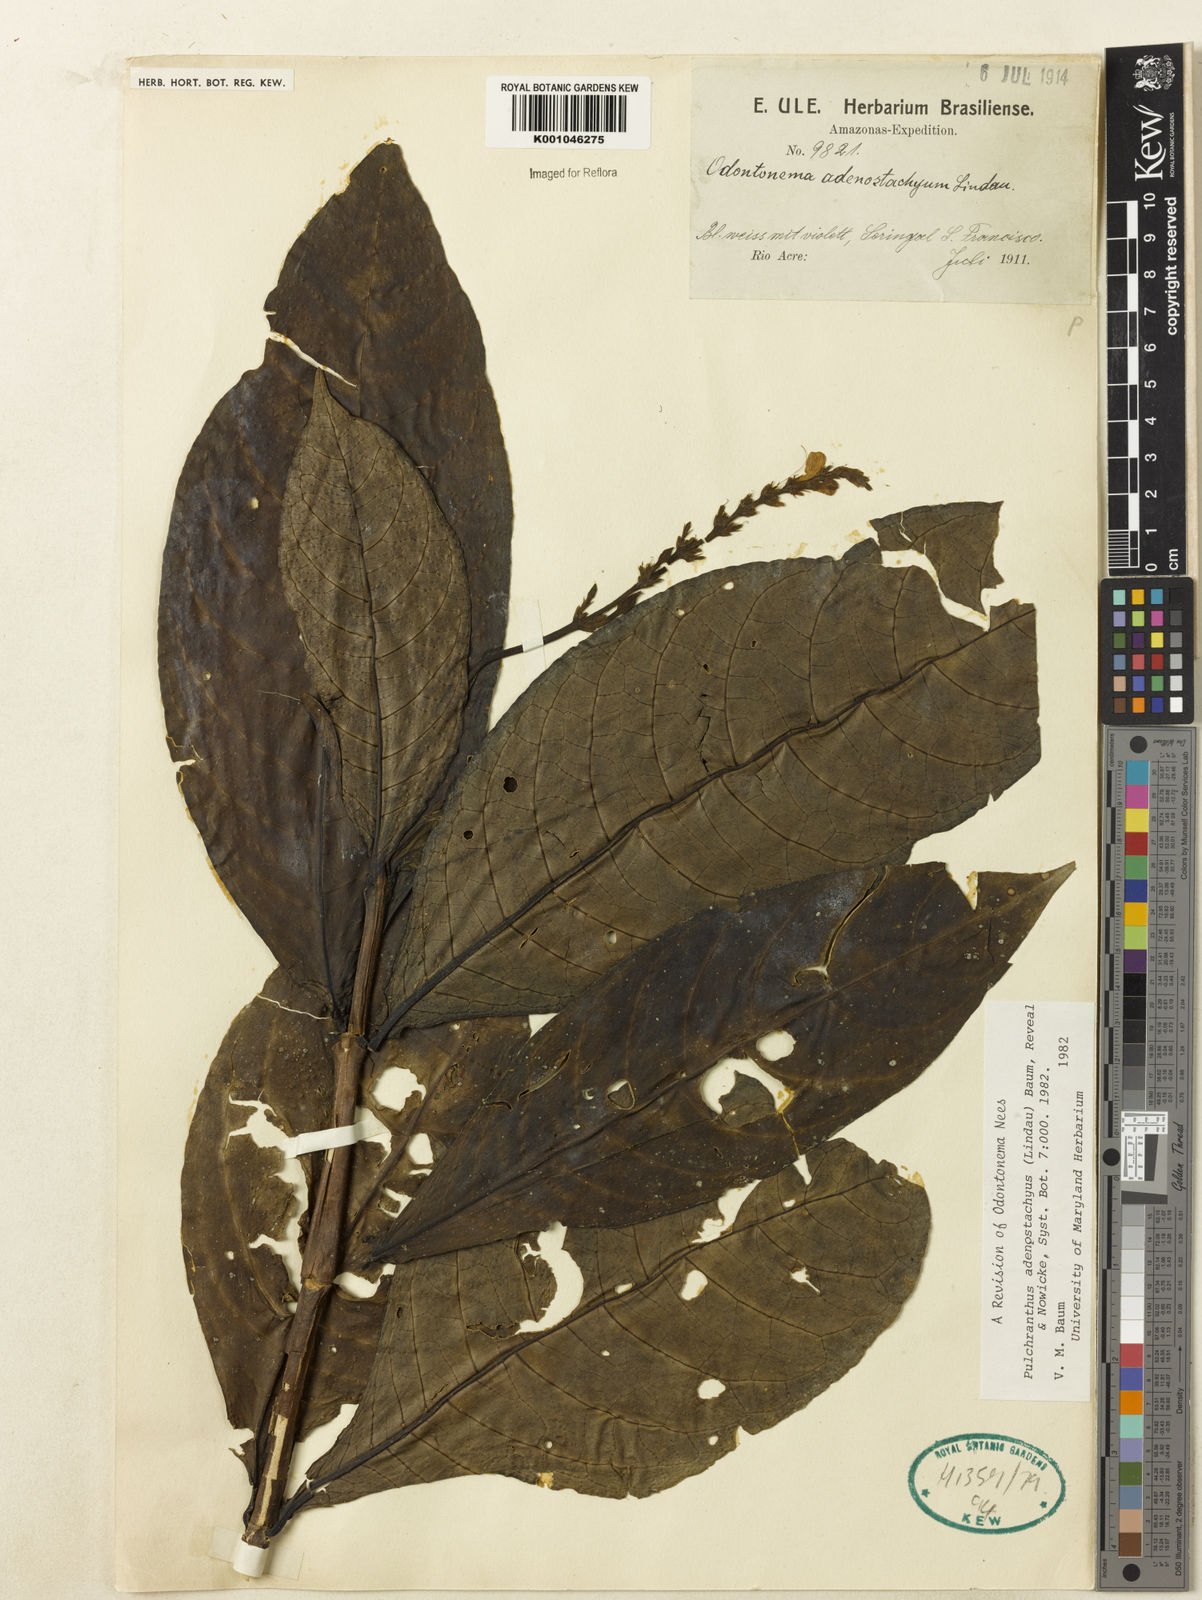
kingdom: Plantae
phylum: Tracheophyta
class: Magnoliopsida
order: Lamiales
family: Acanthaceae
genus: Pulchranthus
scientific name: Pulchranthus
